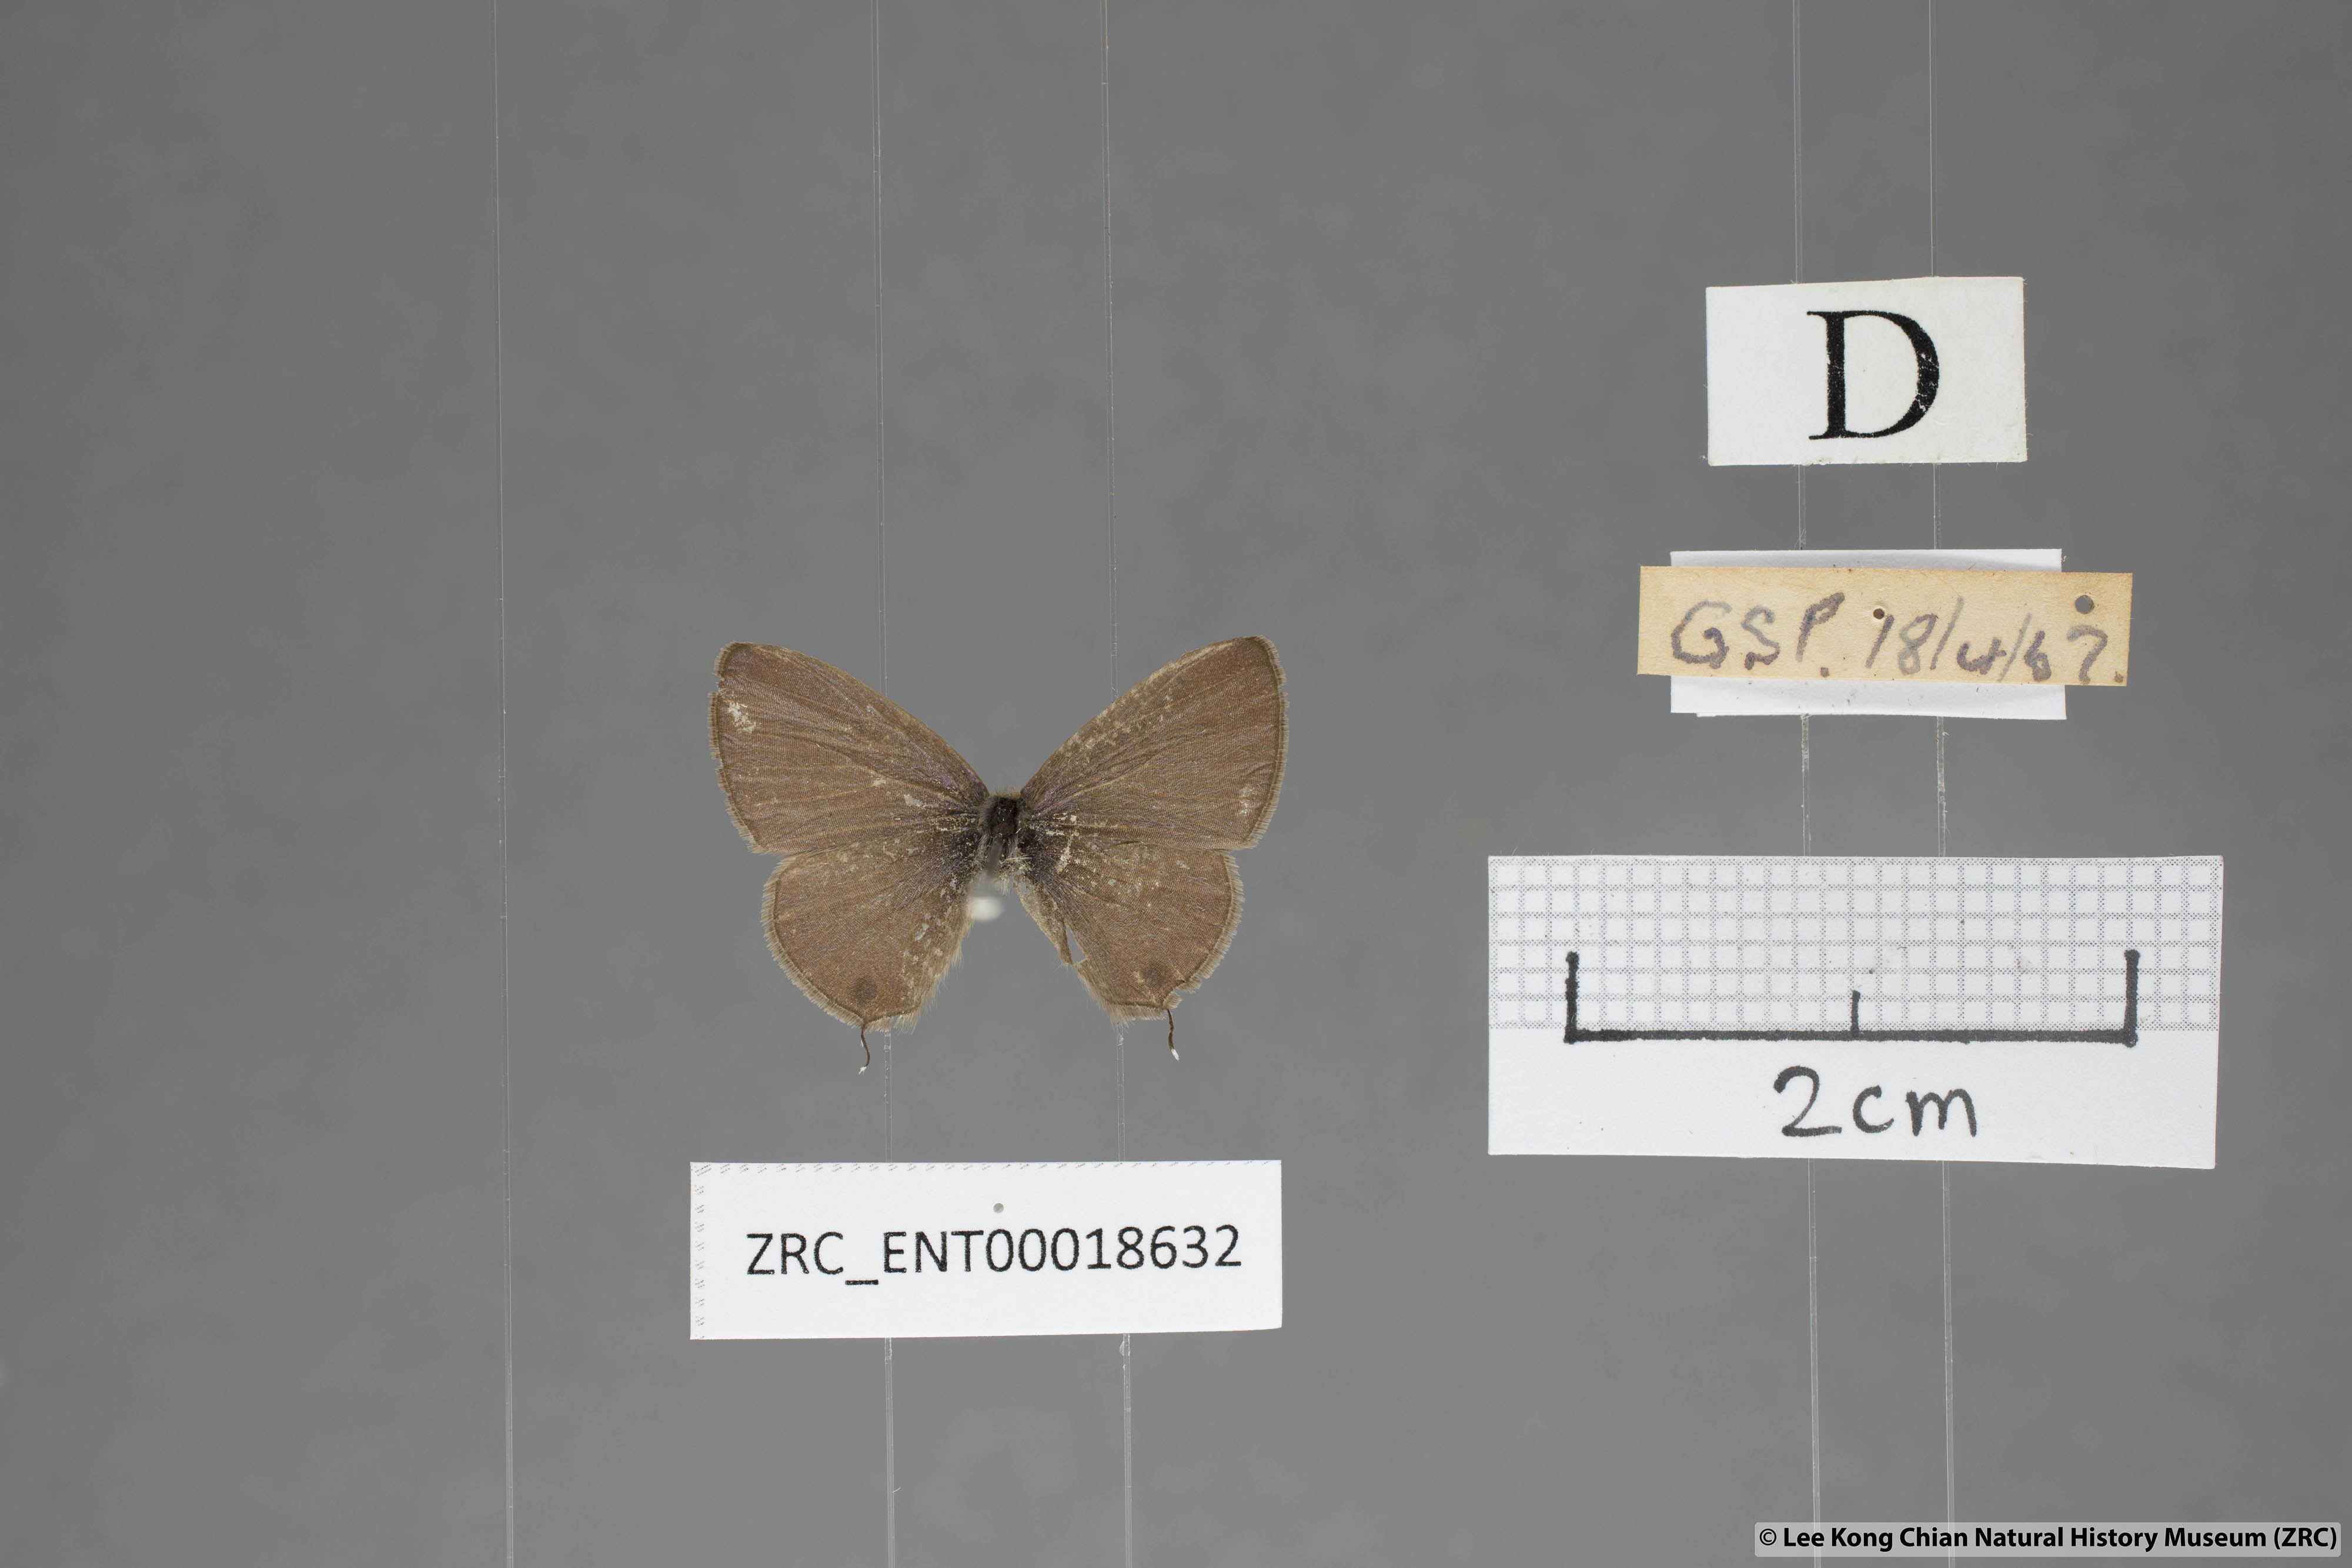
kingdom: Animalia
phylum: Arthropoda
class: Insecta
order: Lepidoptera
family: Lycaenidae
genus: Prosotas
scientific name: Prosotas nora
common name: Common line blue
